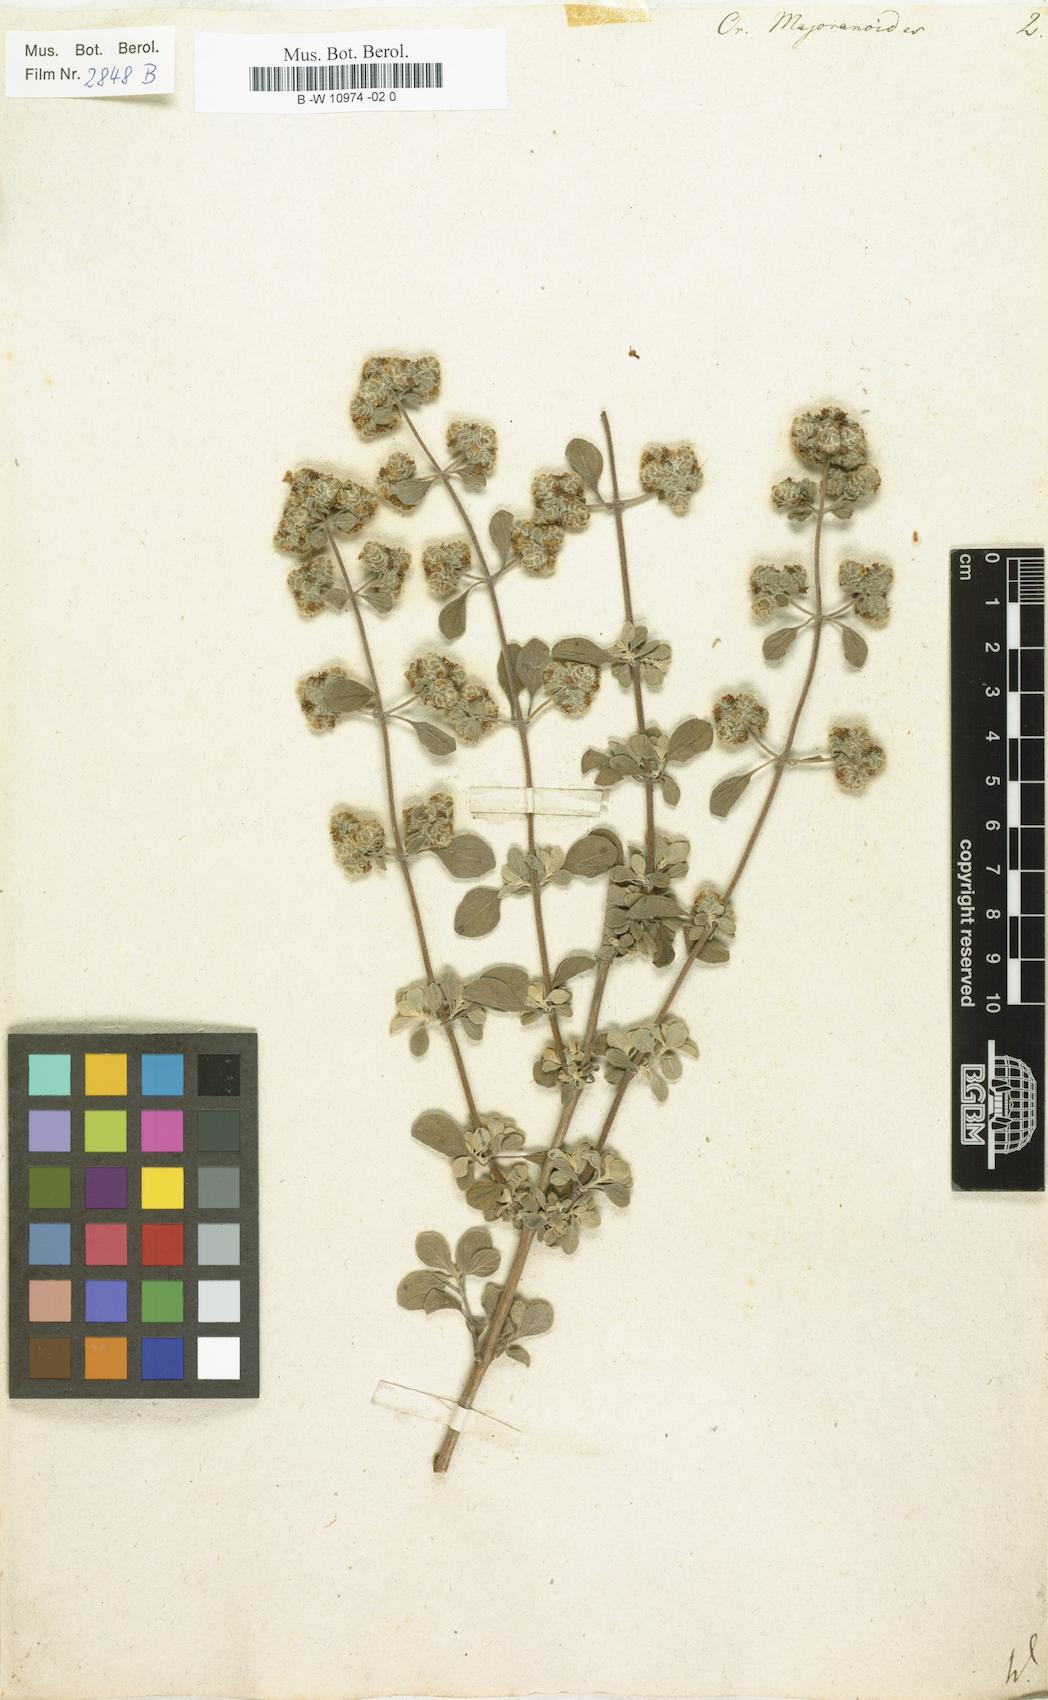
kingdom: Plantae
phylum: Tracheophyta
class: Magnoliopsida
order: Lamiales
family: Lamiaceae
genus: Origanum
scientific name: Origanum majorana
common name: Sweet marjoram
